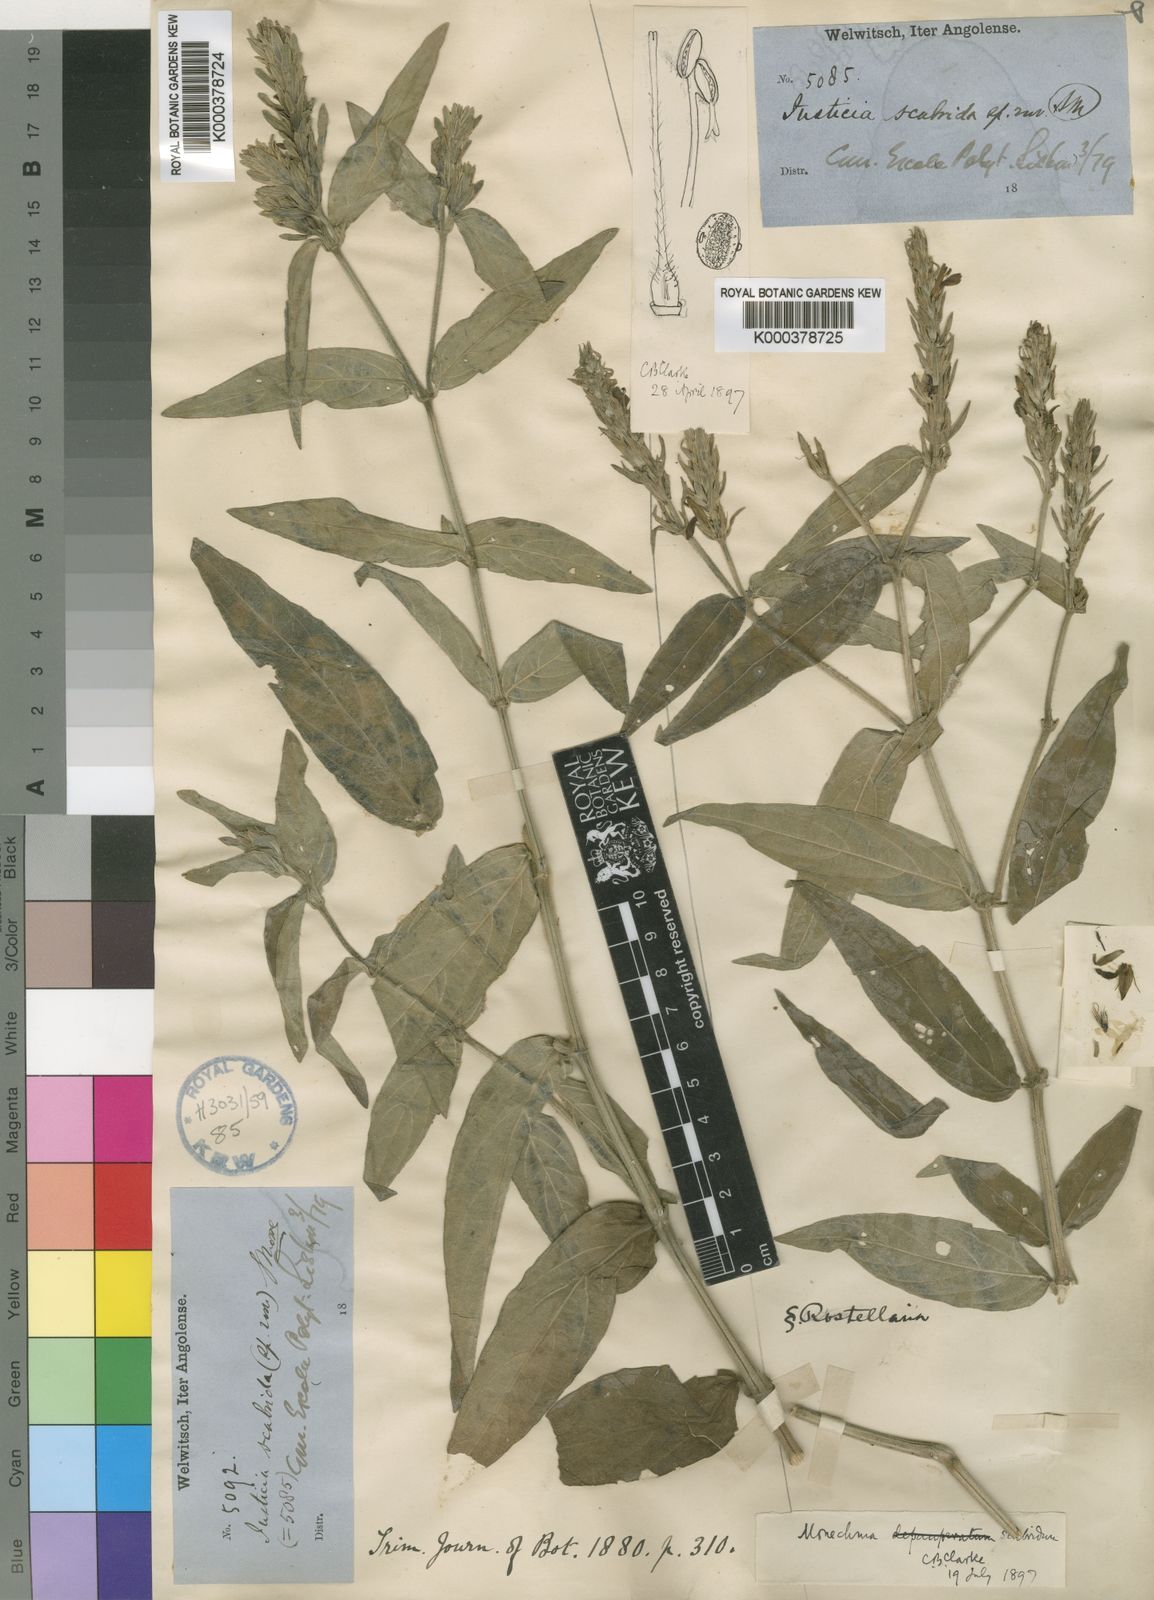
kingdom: Plantae
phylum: Tracheophyta
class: Magnoliopsida
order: Lamiales
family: Acanthaceae
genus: Monechma
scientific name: Monechma depauperatum
